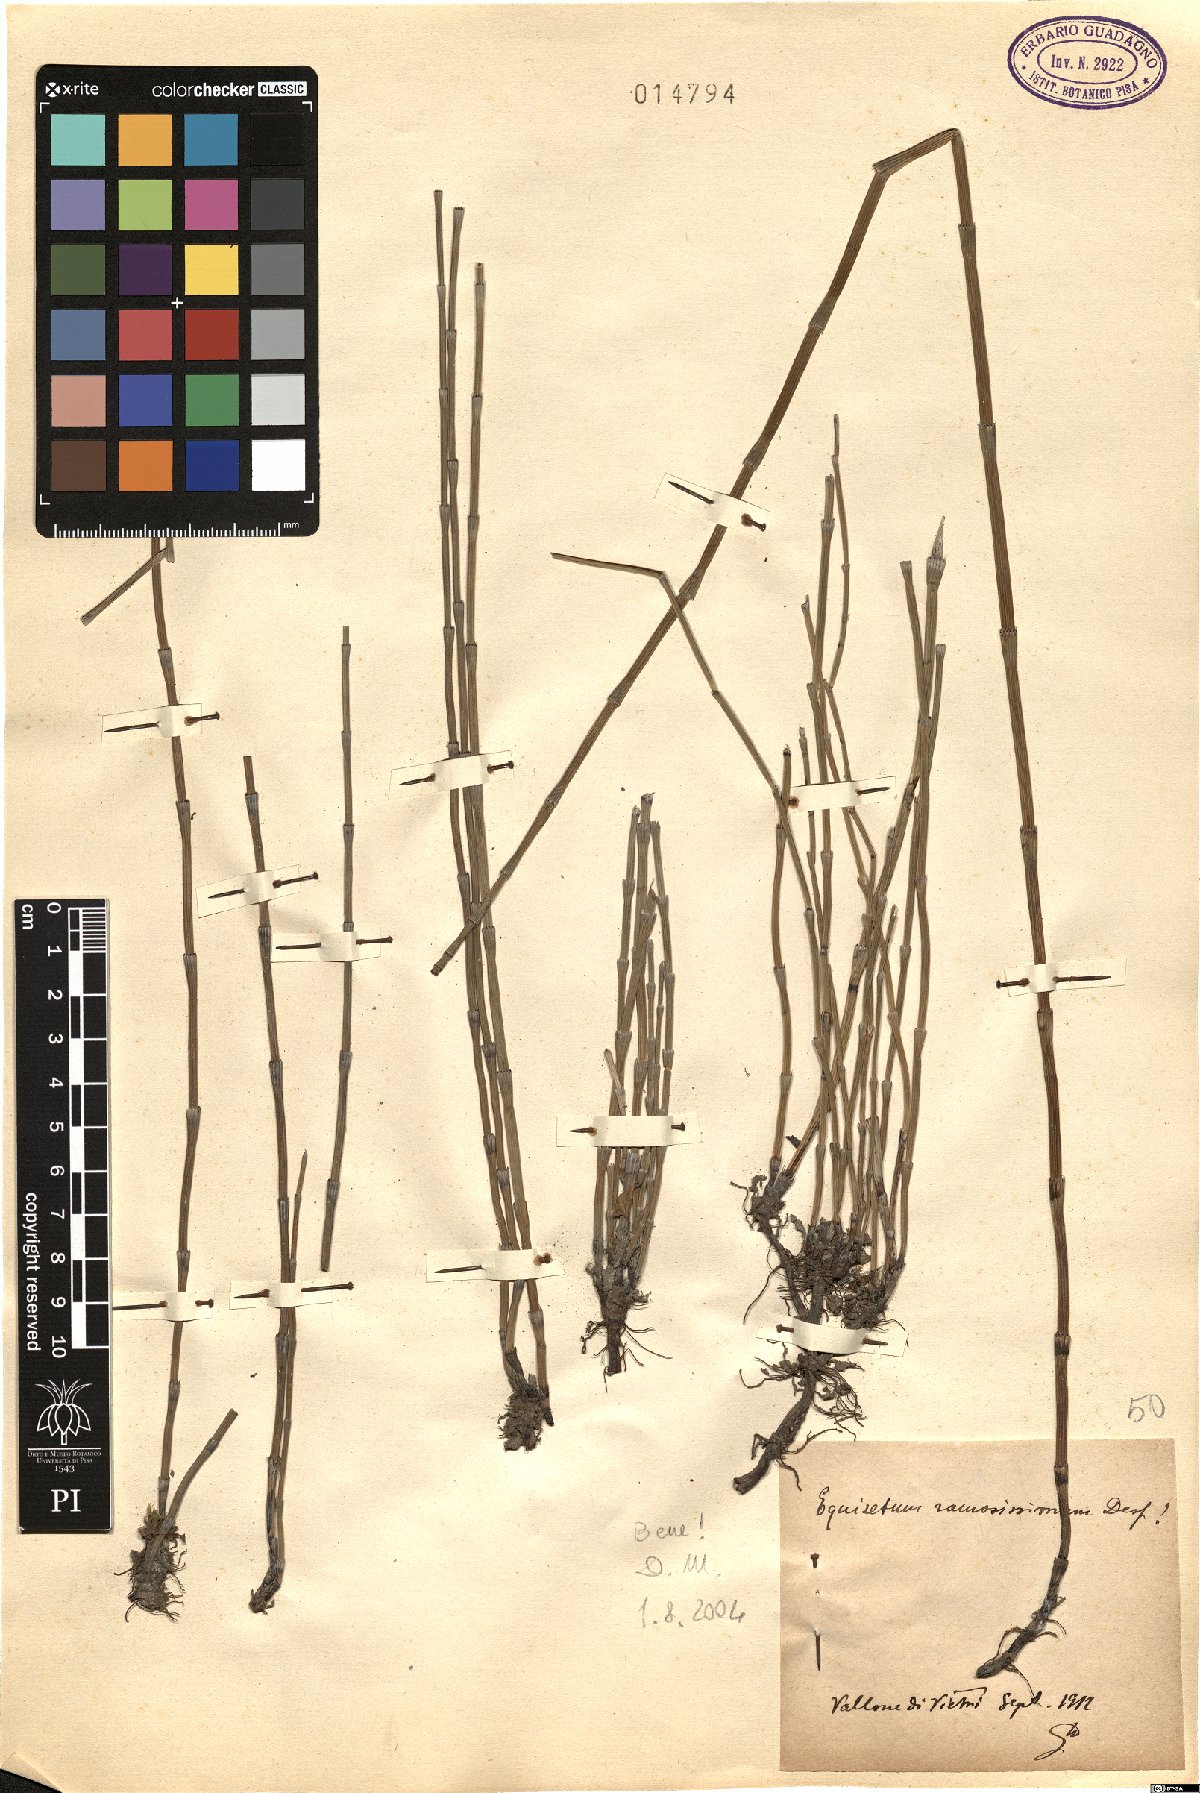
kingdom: Plantae
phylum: Tracheophyta
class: Polypodiopsida
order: Equisetales
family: Equisetaceae
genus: Equisetum
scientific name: Equisetum ramosissimum
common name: Branched horsetail
